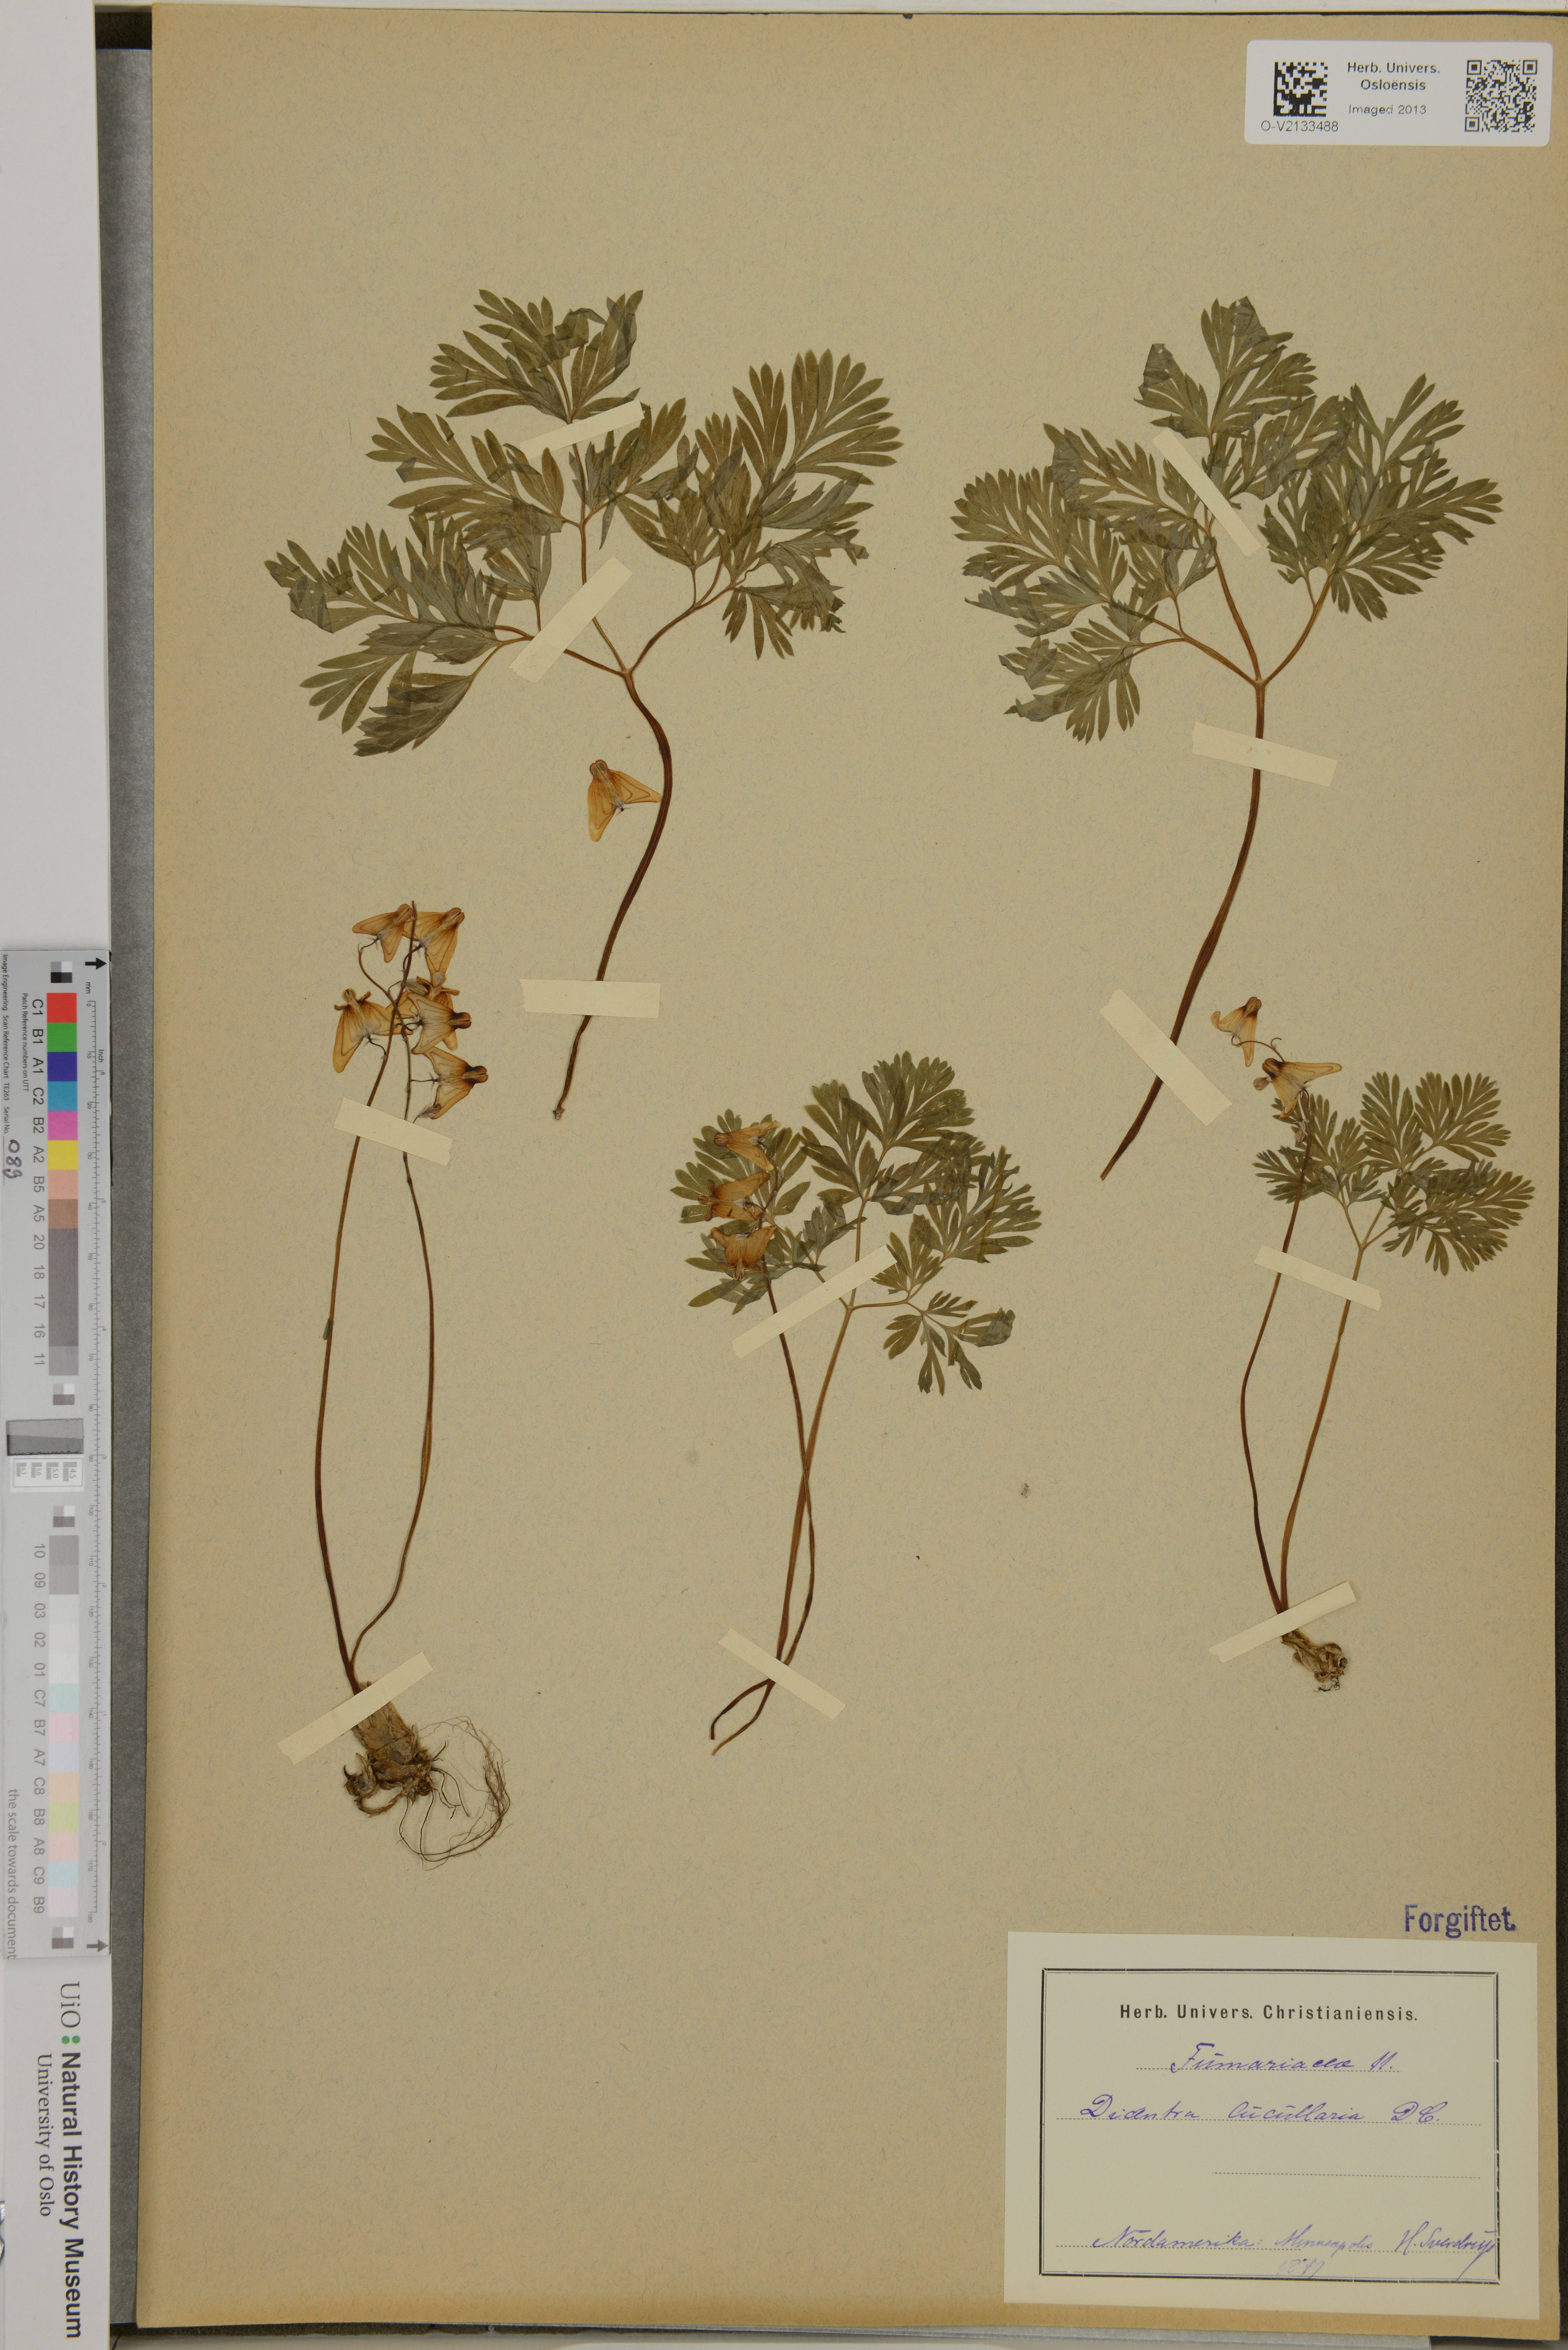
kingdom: Plantae
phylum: Tracheophyta
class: Magnoliopsida
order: Ranunculales
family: Papaveraceae
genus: Dicentra
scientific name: Dicentra cucullaria
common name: Dutchman's breeches
